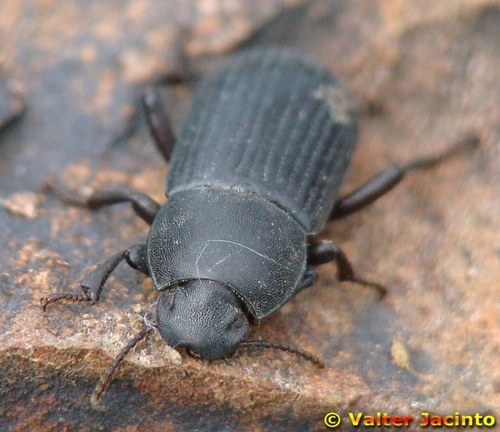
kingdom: Animalia
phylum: Arthropoda
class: Insecta
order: Coleoptera
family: Tenebrionidae
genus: Phylan
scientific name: Phylan tenebriodes
